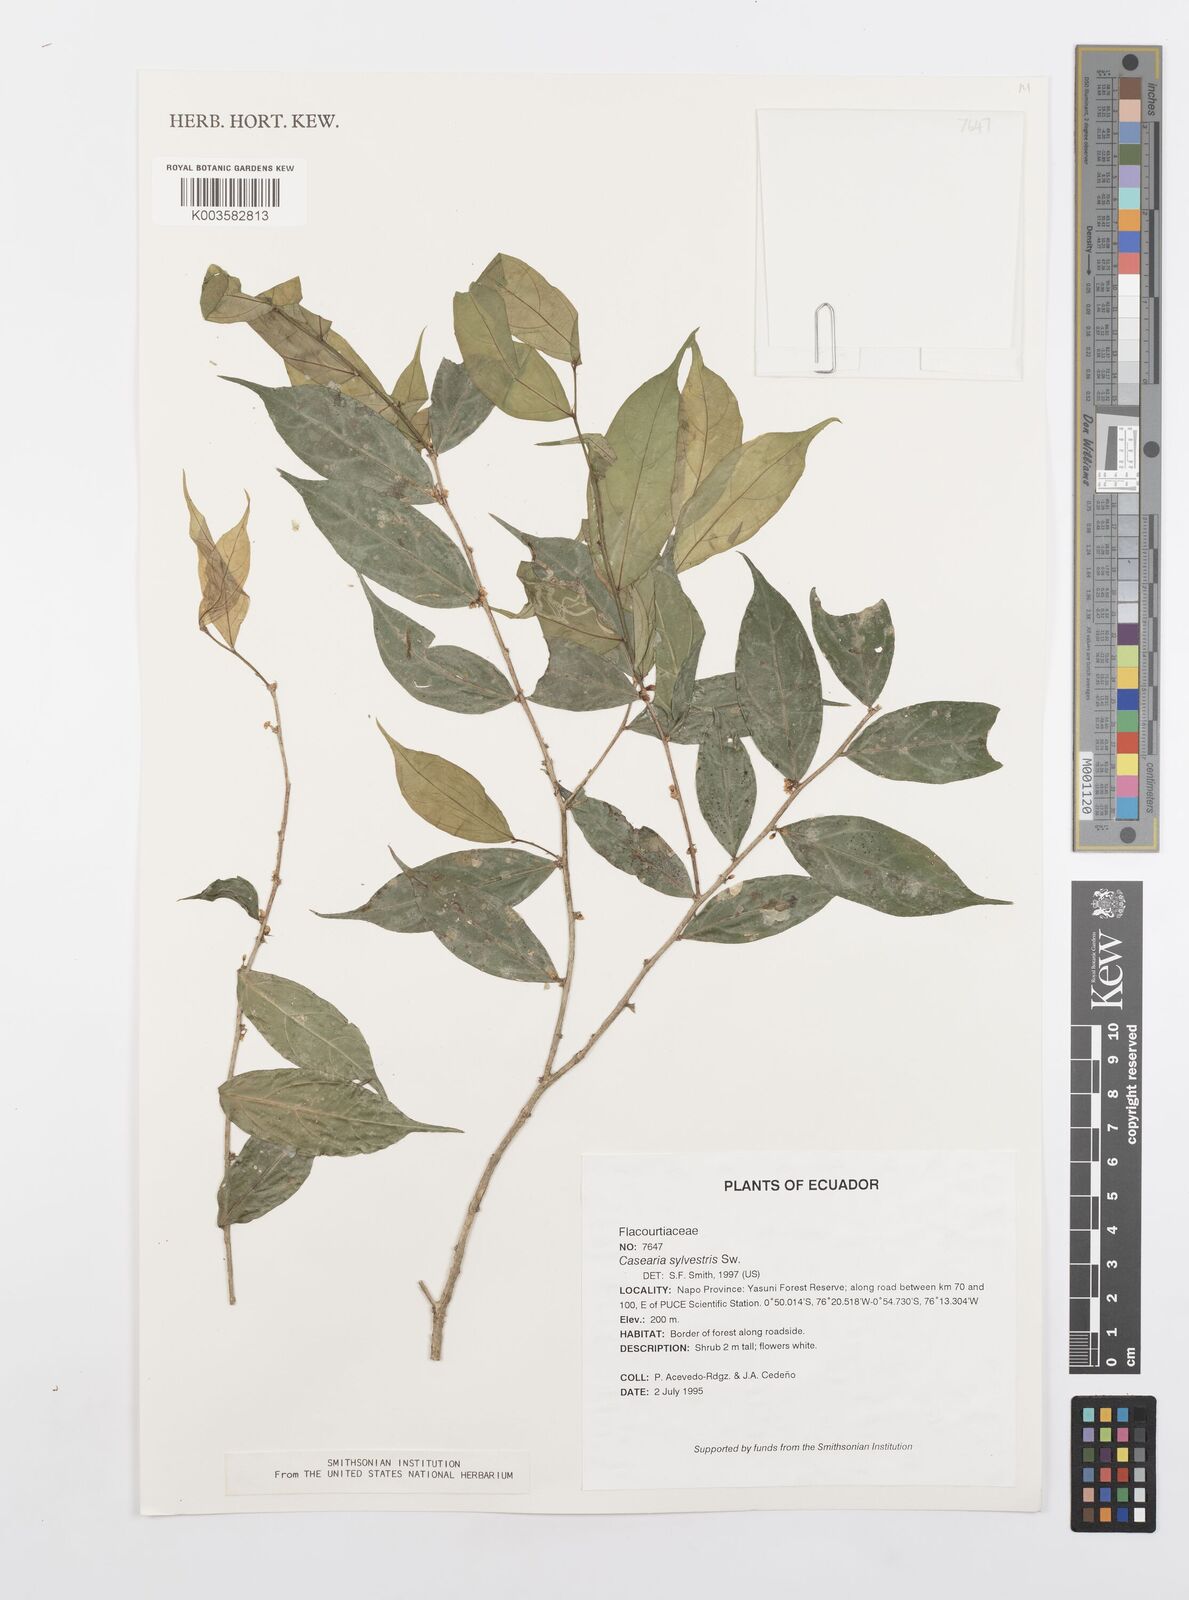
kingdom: Plantae
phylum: Tracheophyta
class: Magnoliopsida
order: Malpighiales
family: Salicaceae
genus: Casearia
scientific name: Casearia sylvestris
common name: Wild sage
